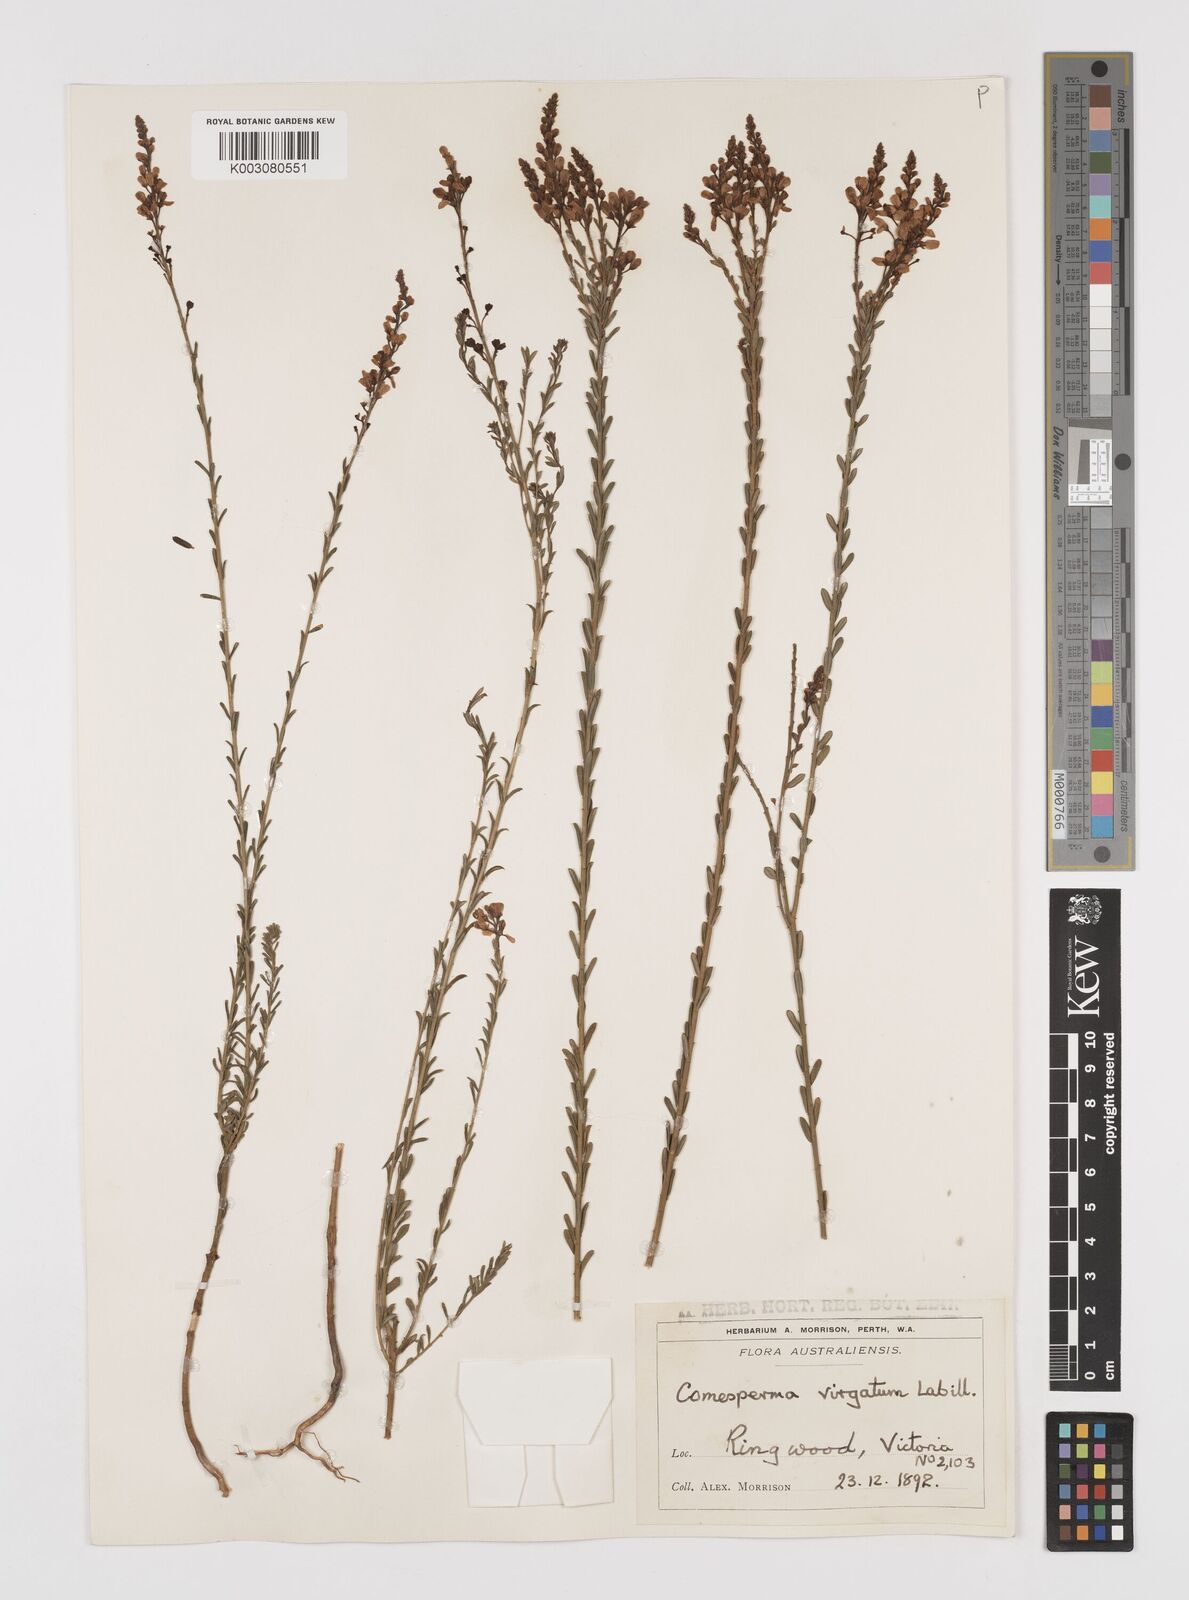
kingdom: Plantae
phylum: Tracheophyta
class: Magnoliopsida
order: Fabales
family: Polygalaceae
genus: Comesperma
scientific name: Comesperma virgatum
